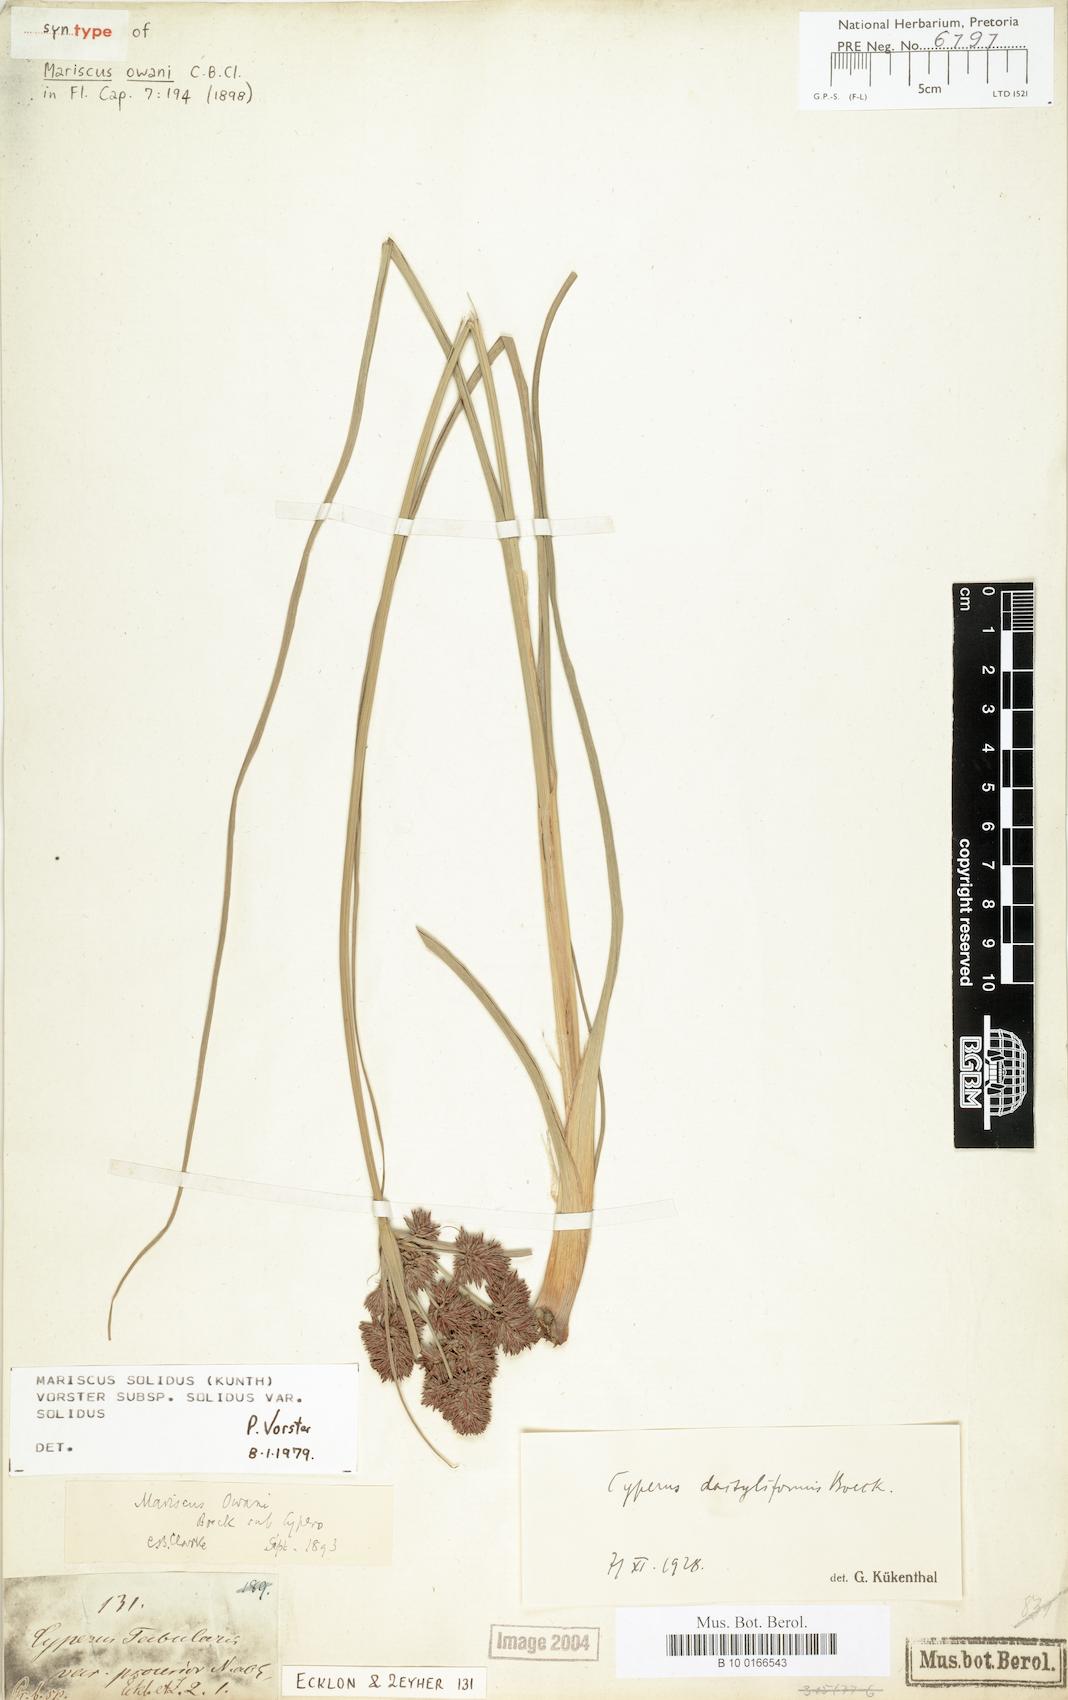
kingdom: Plantae
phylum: Tracheophyta
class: Liliopsida
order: Poales
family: Cyperaceae
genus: Cyperus
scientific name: Cyperus solidus
